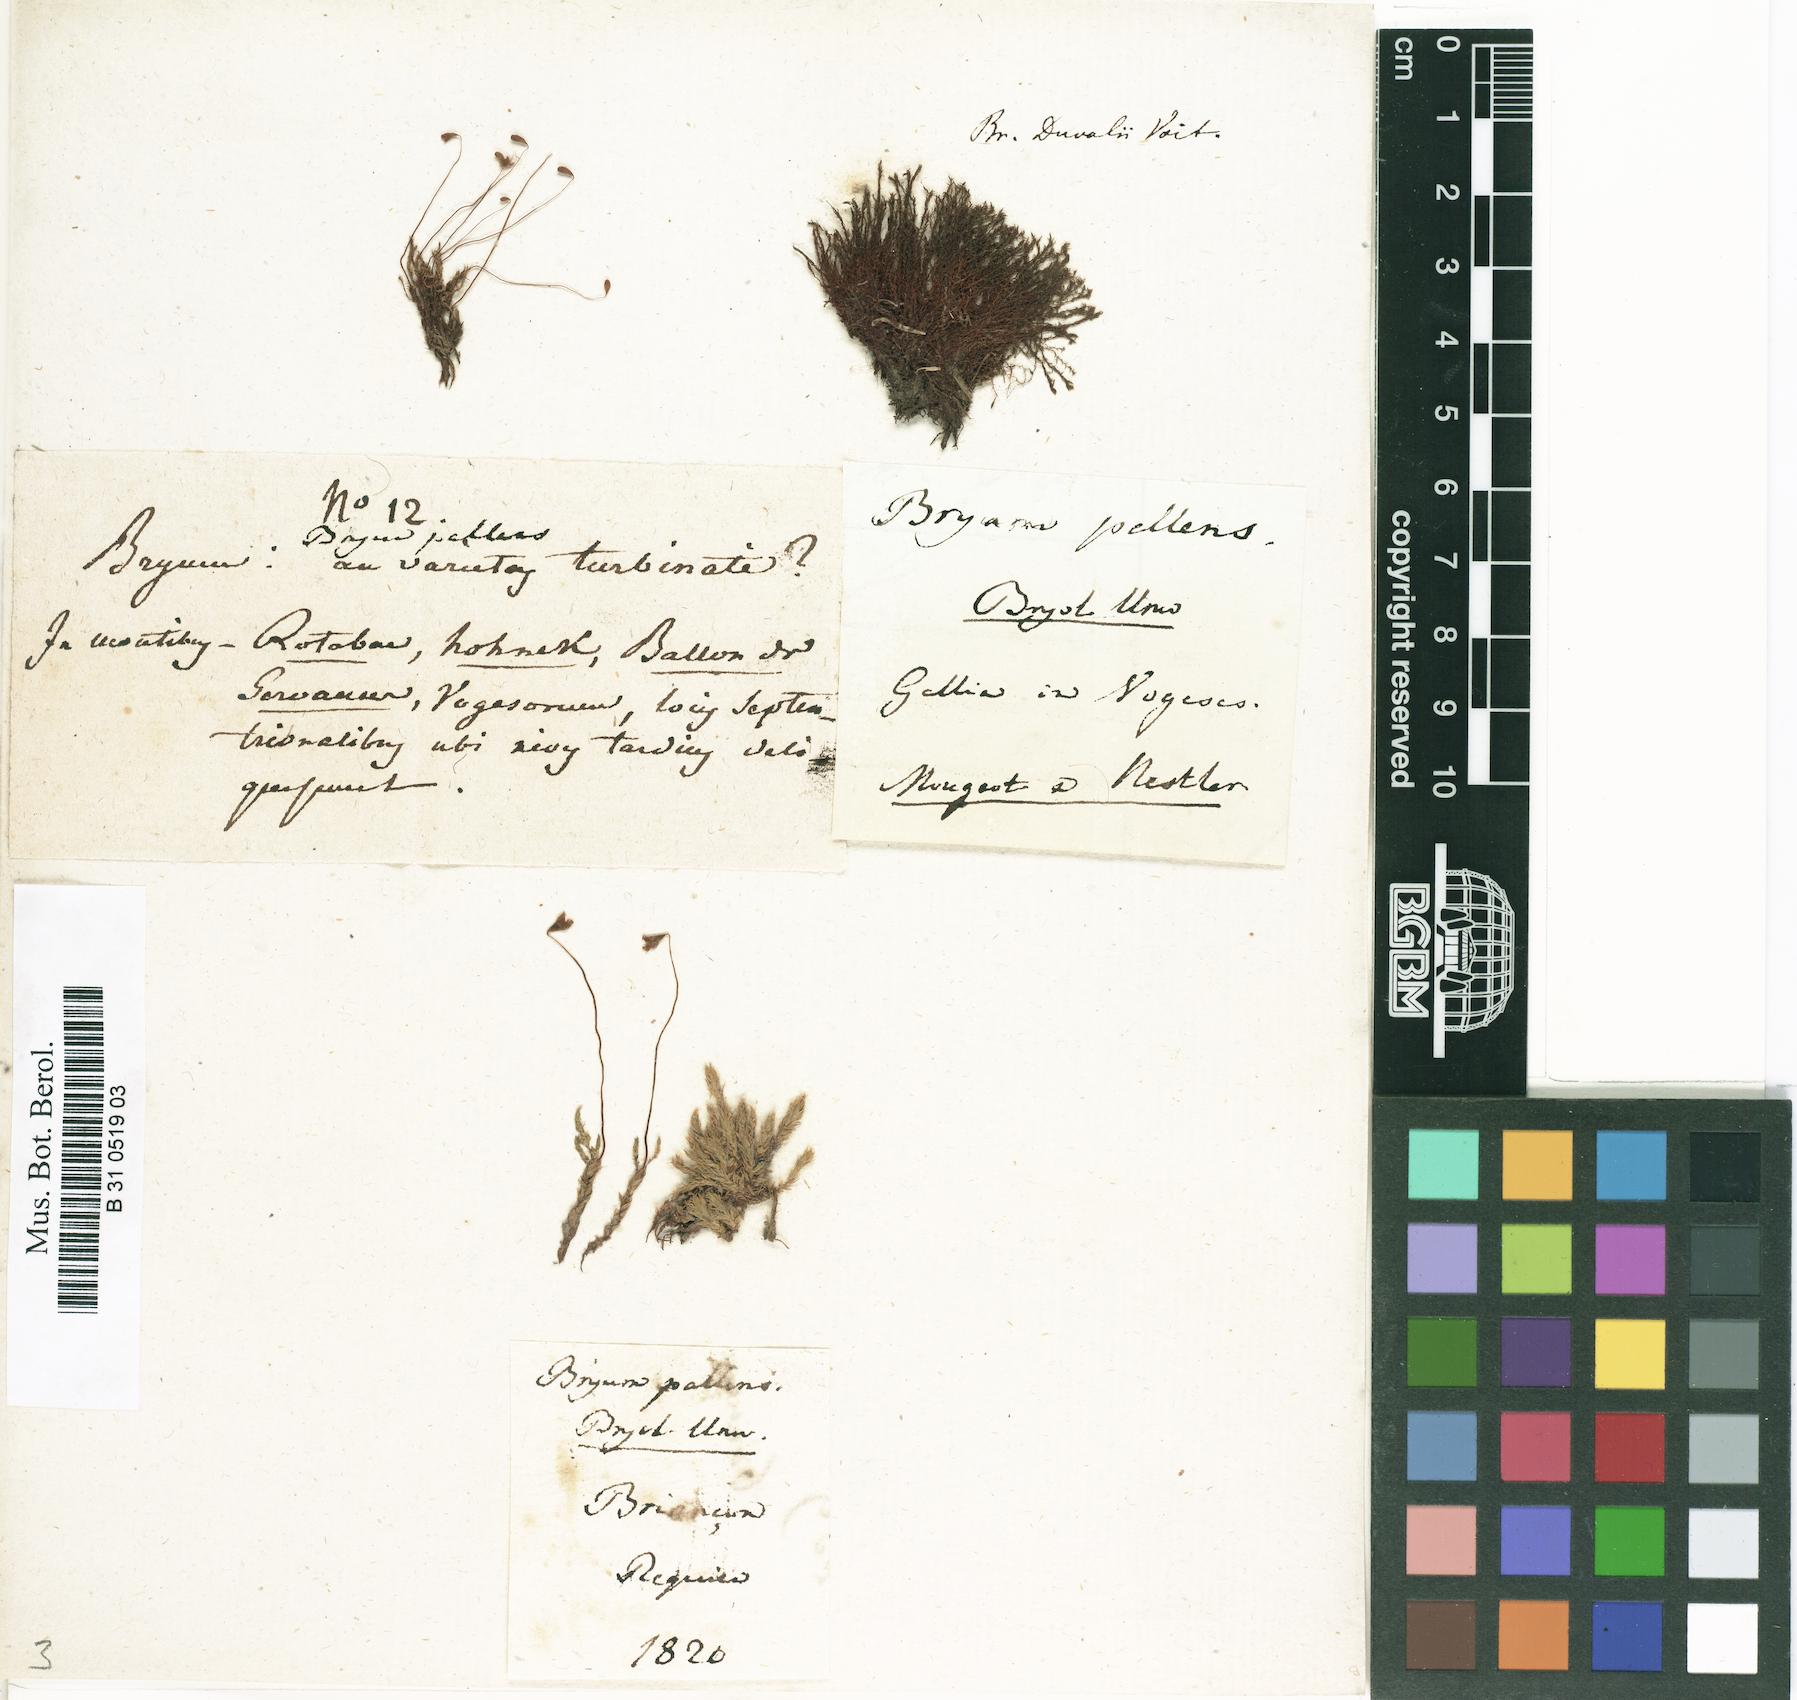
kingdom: Plantae
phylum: Bryophyta
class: Bryopsida
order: Bryales
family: Bryaceae
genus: Ptychostomum
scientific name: Ptychostomum pallens
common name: Pale thread-moss
